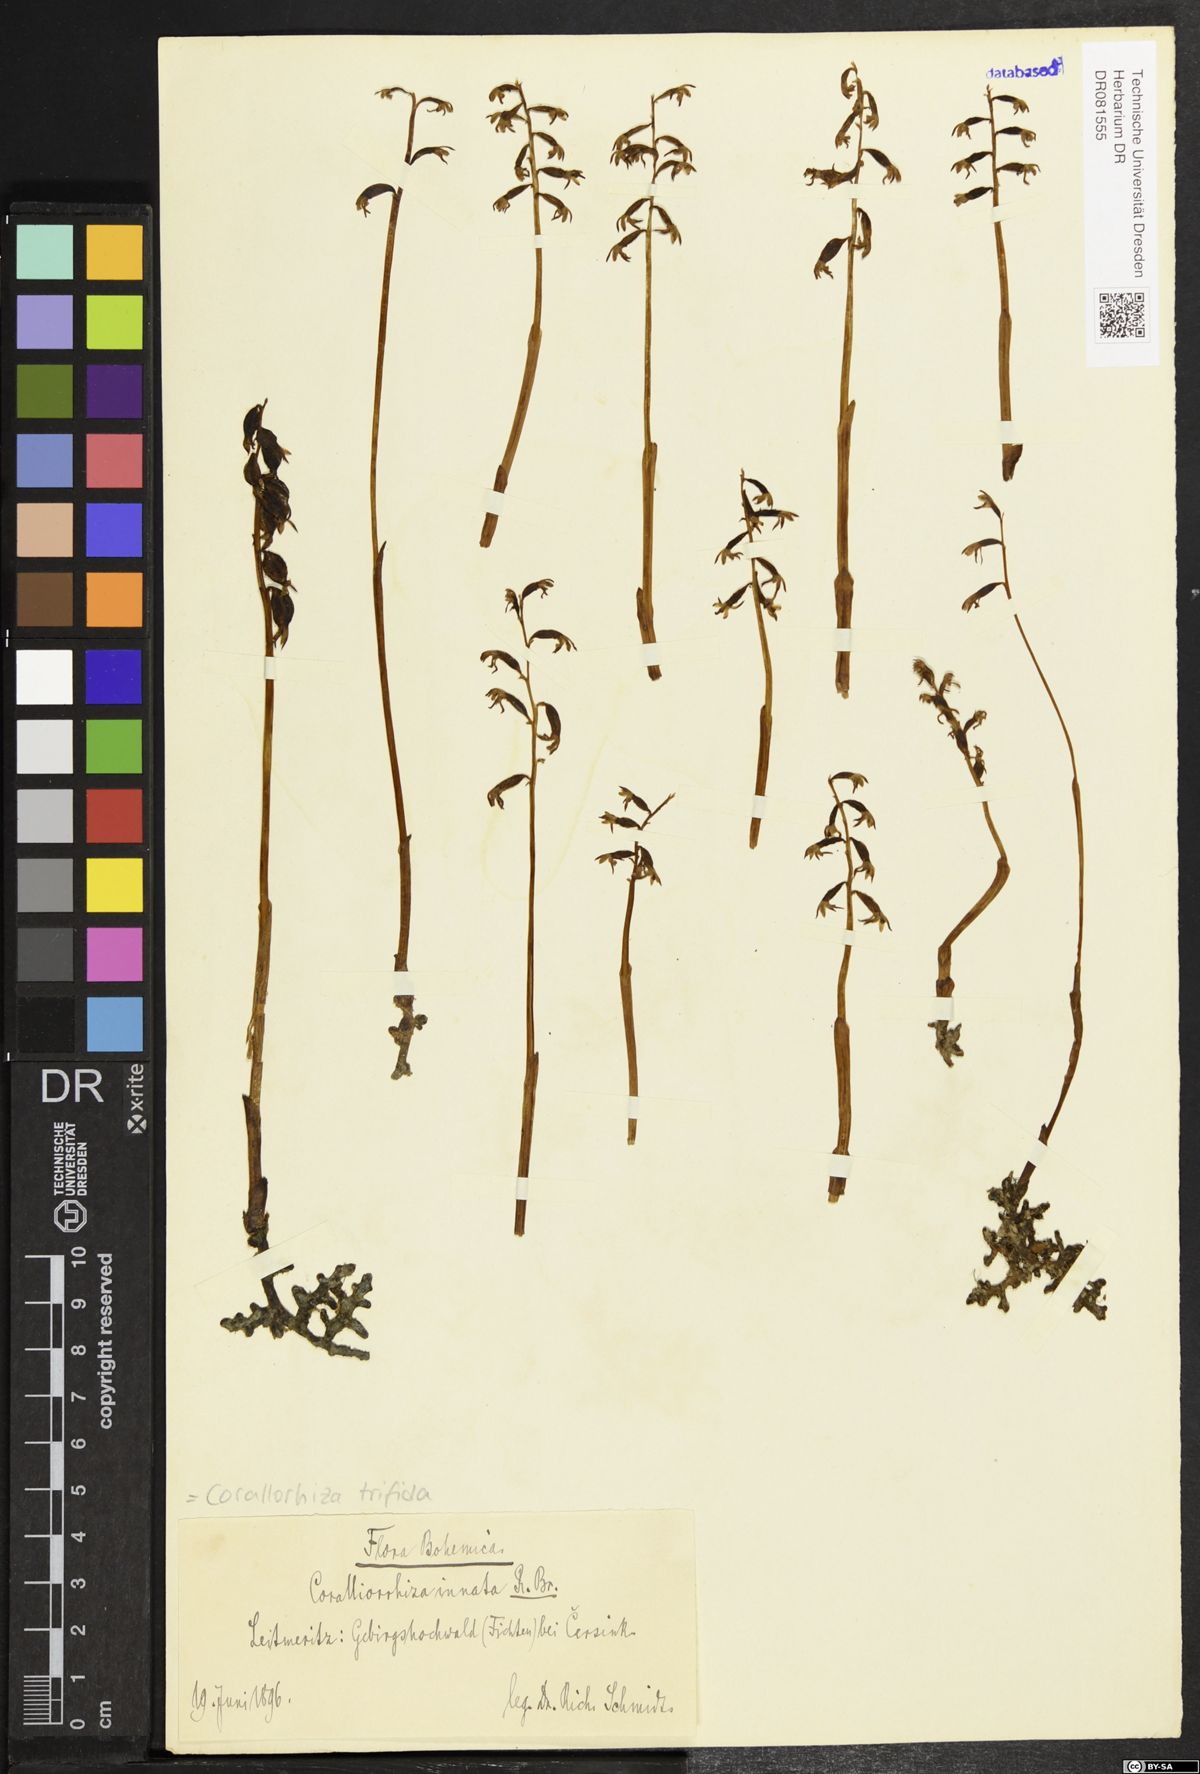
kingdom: Plantae
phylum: Tracheophyta
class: Liliopsida
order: Asparagales
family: Orchidaceae
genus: Corallorhiza
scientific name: Corallorhiza trifida
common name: Yellow coralroot
